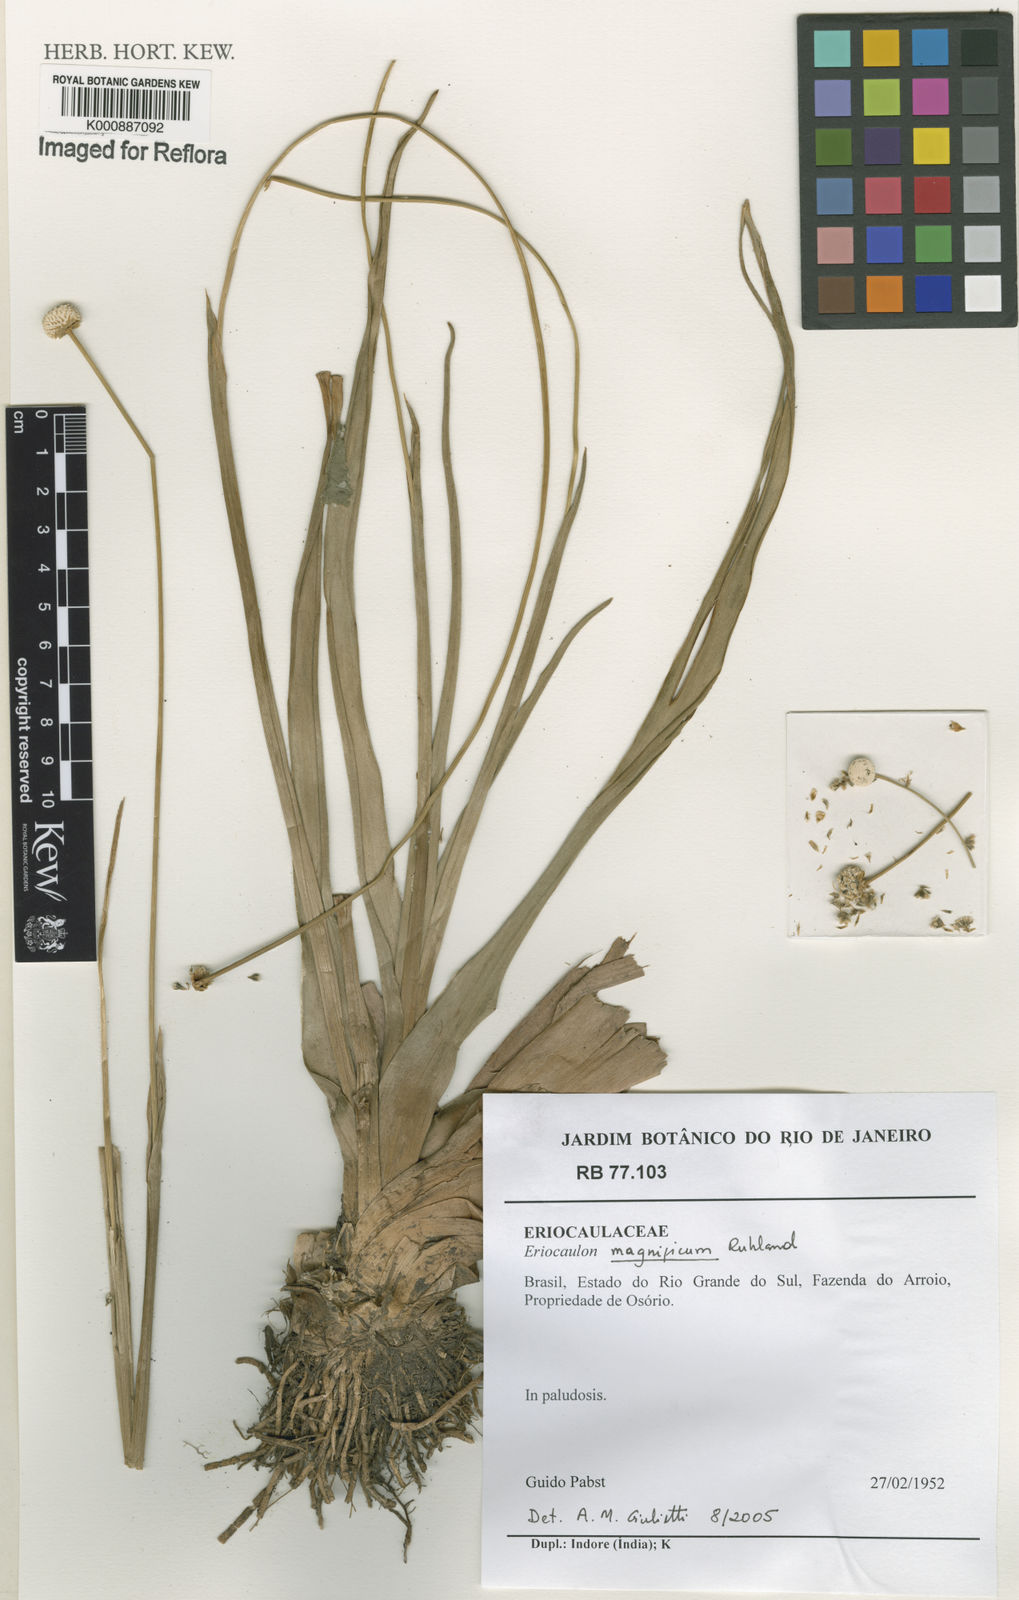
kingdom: Plantae
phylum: Tracheophyta
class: Liliopsida
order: Poales
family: Eriocaulaceae
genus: Eriocaulon
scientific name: Eriocaulon magnificum
